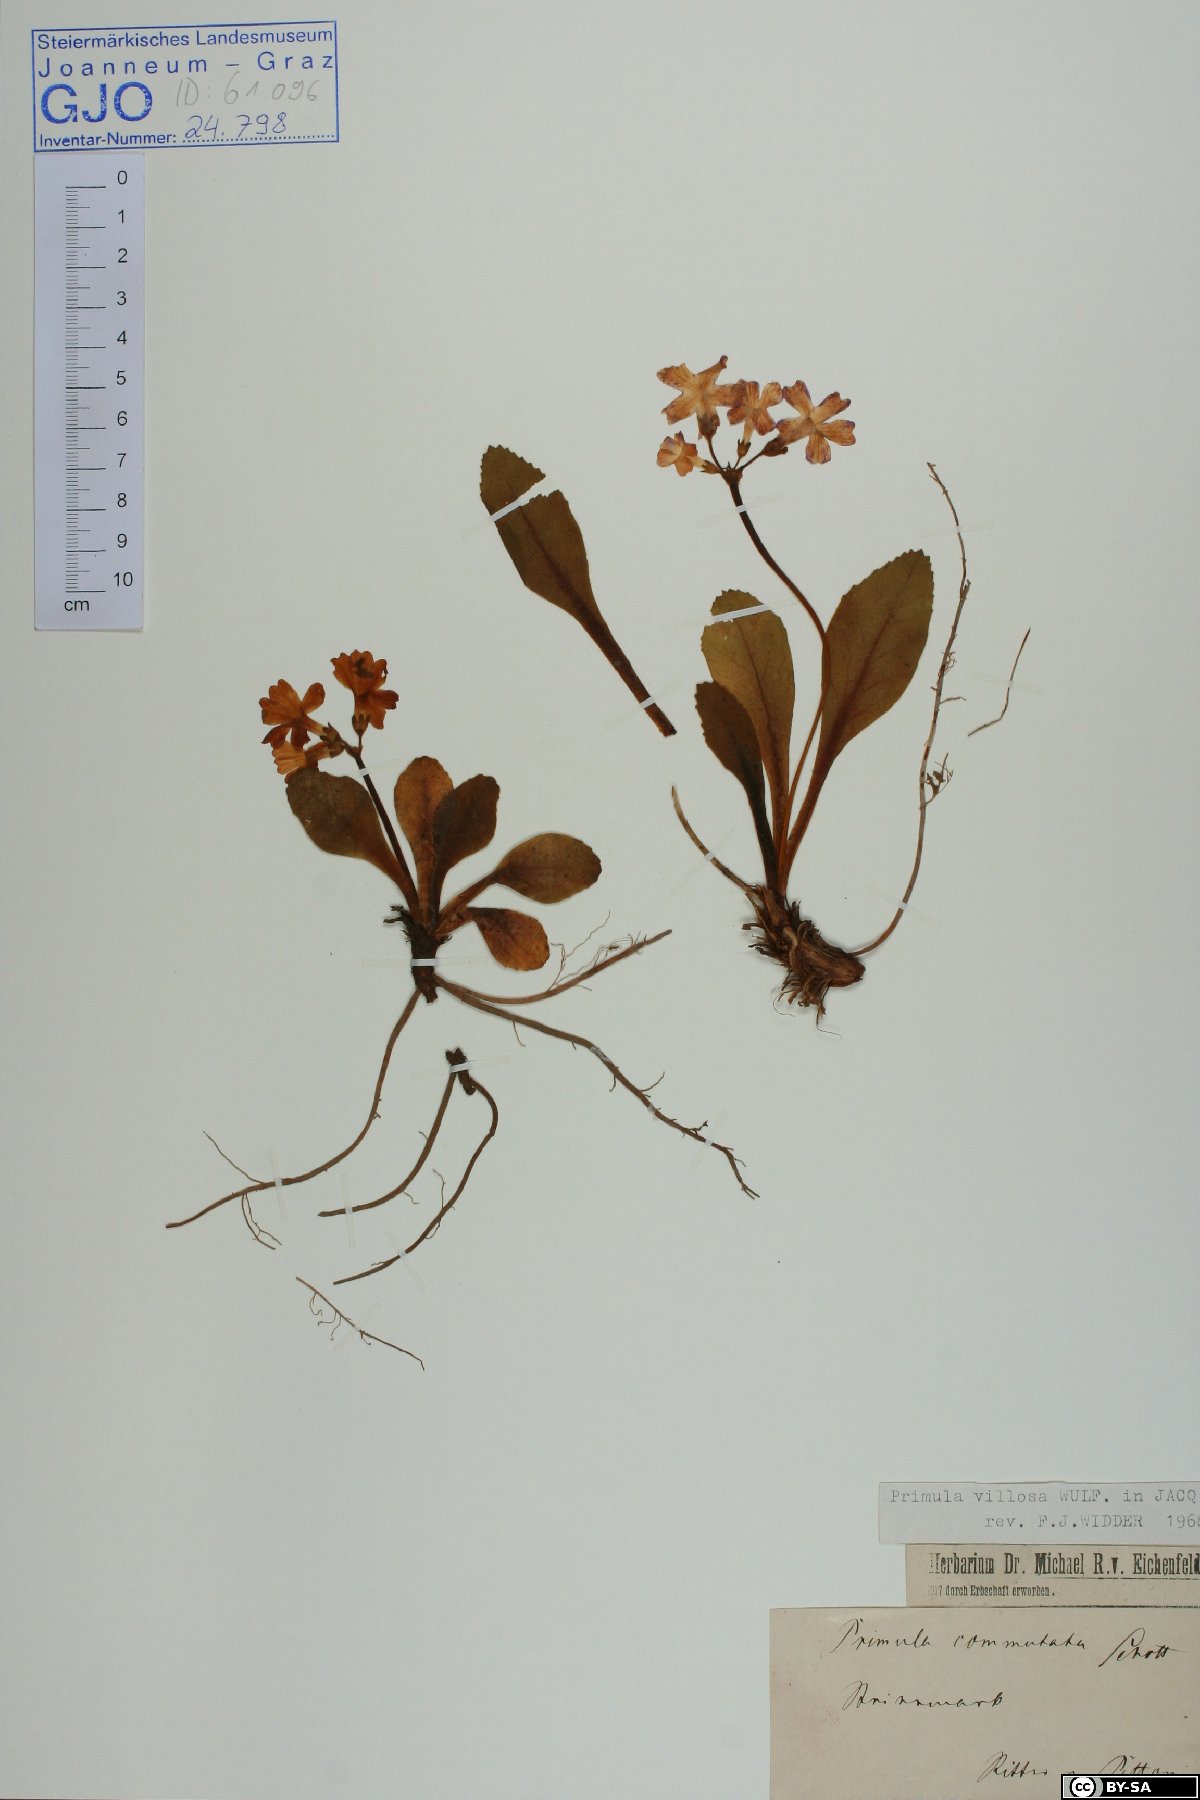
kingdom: Plantae
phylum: Tracheophyta
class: Magnoliopsida
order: Ericales
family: Primulaceae
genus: Primula
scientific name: Primula villosa
